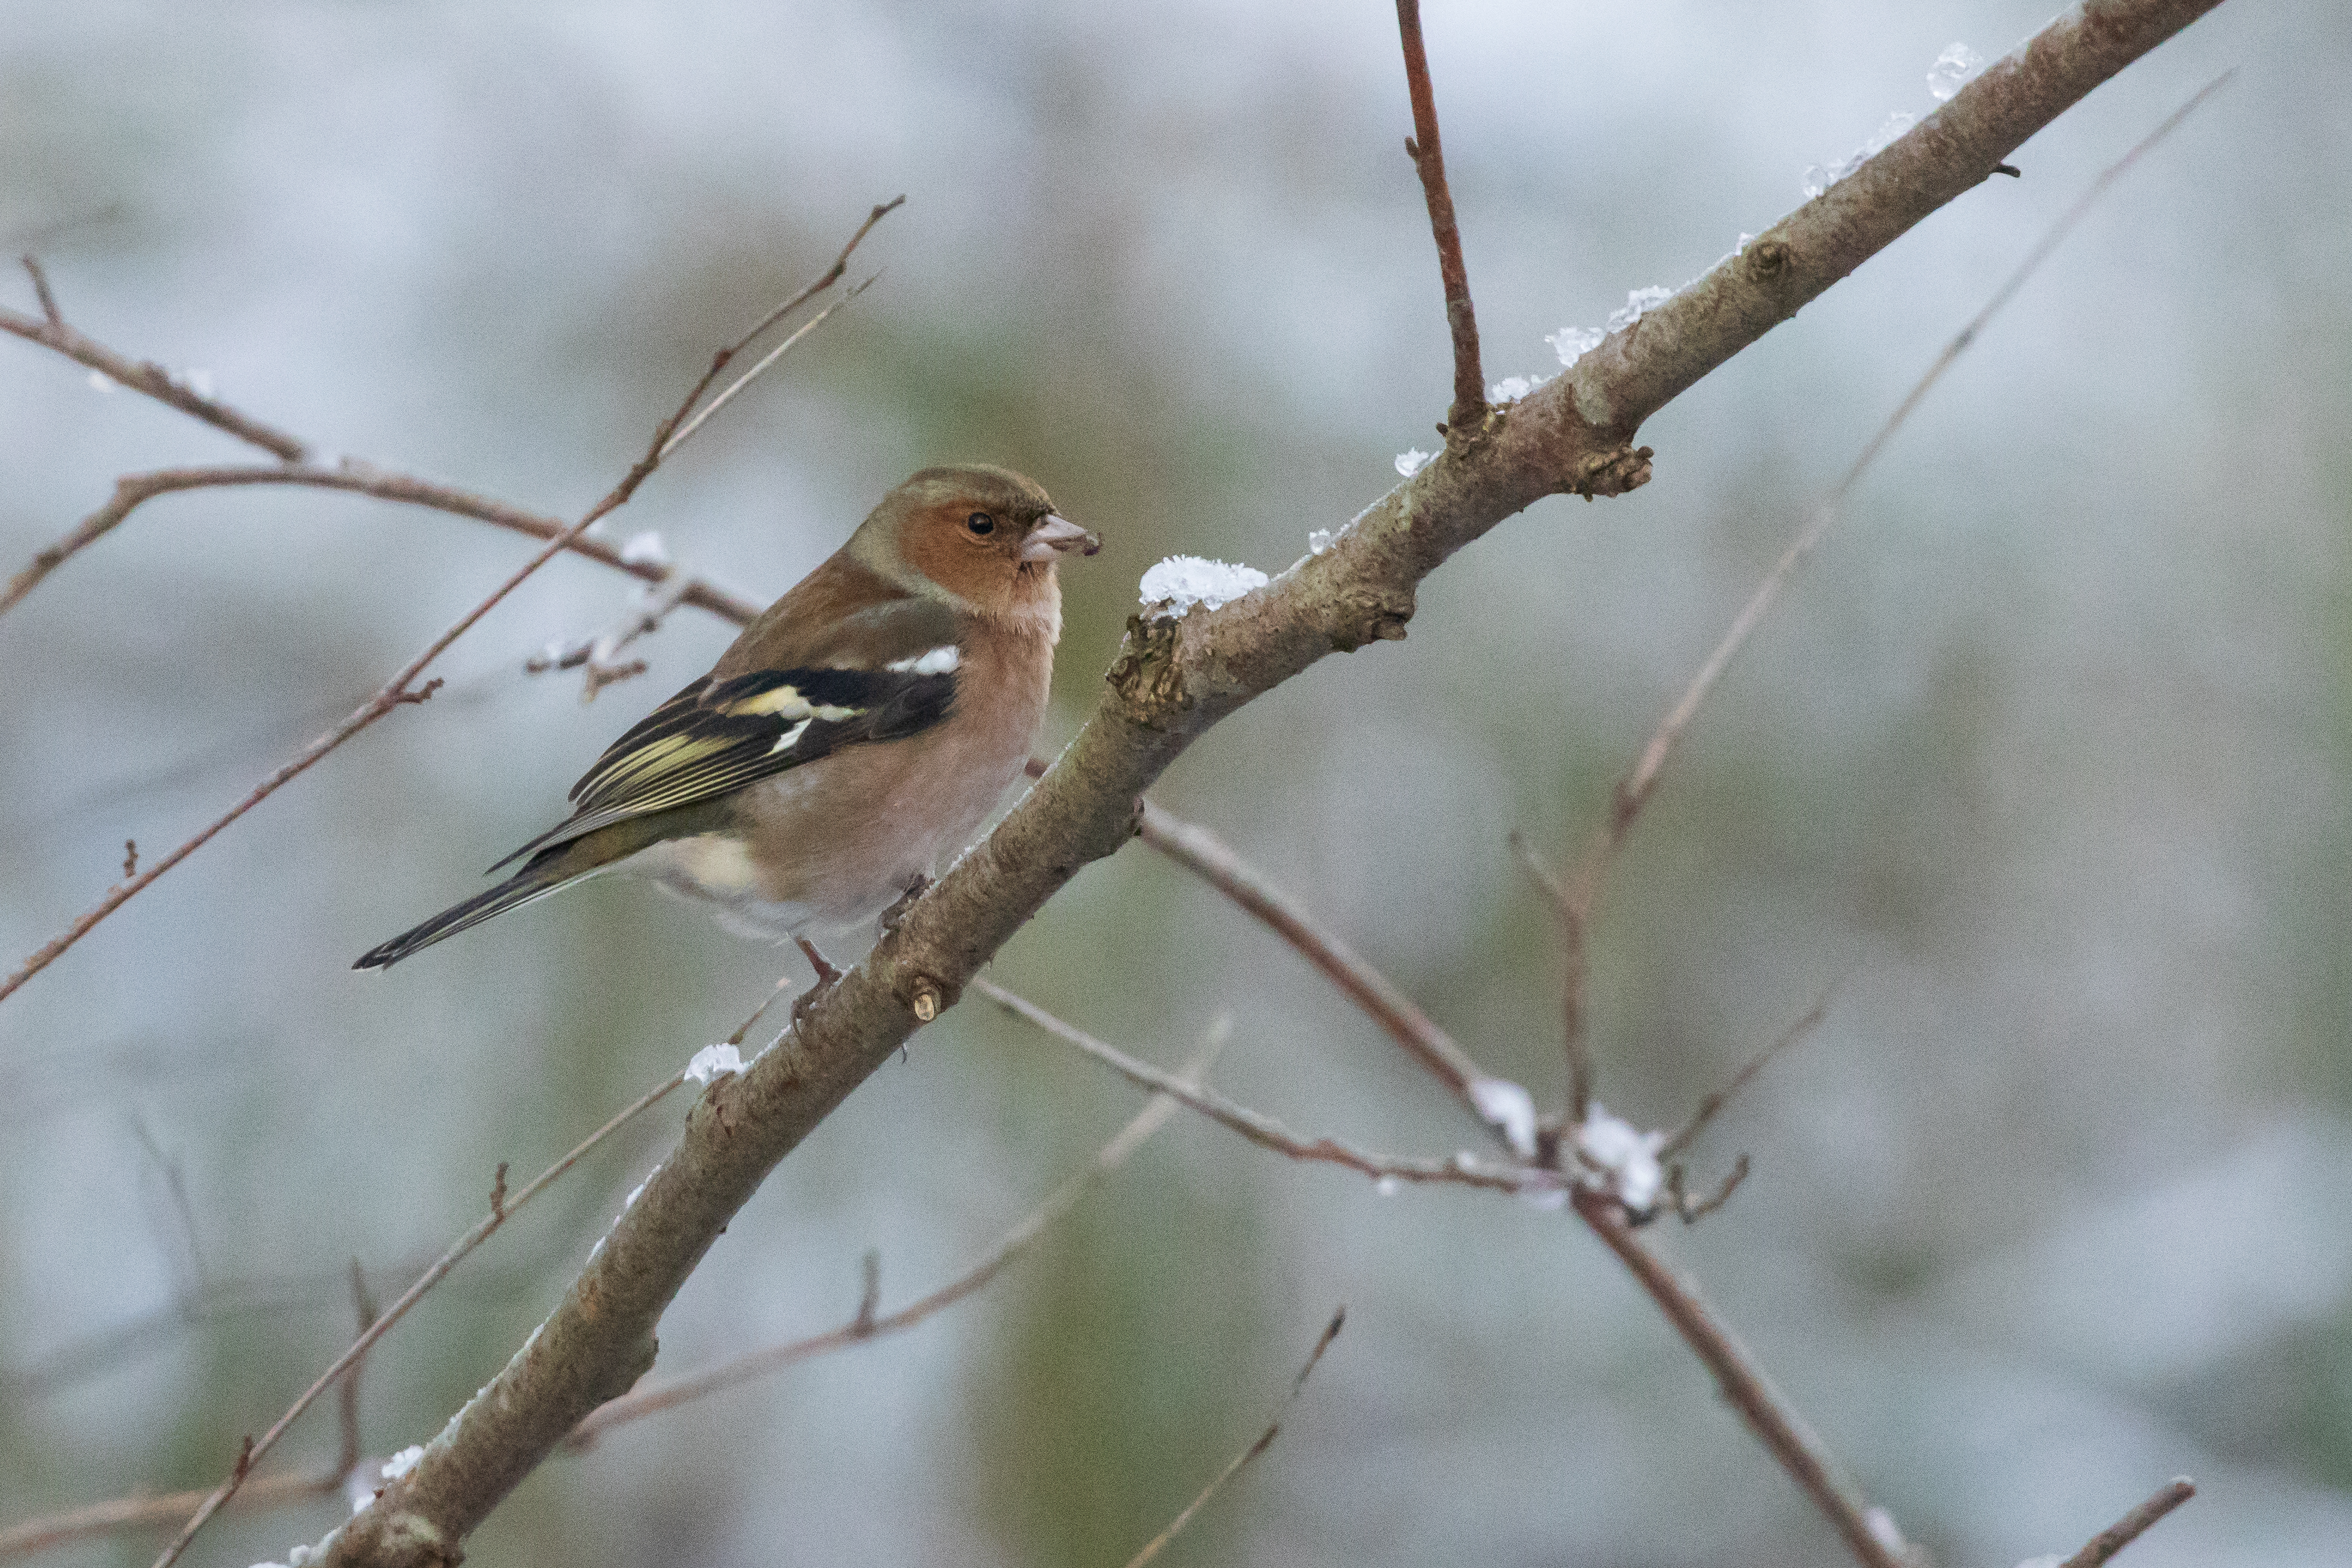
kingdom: Animalia
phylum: Chordata
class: Aves
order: Passeriformes
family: Fringillidae
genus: Fringilla
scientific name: Fringilla coelebs
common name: Bogfinke
